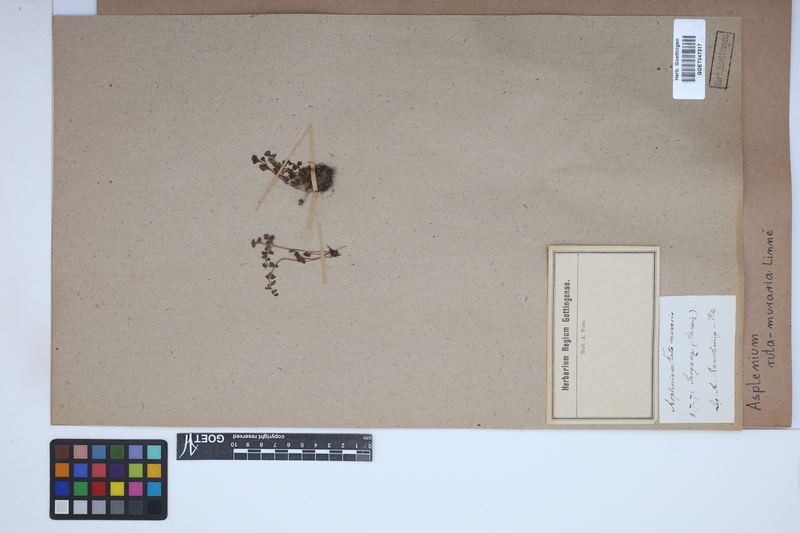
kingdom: Plantae
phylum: Tracheophyta
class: Polypodiopsida
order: Polypodiales
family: Aspleniaceae
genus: Asplenium
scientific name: Asplenium ruta-muraria
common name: Wall-rue
